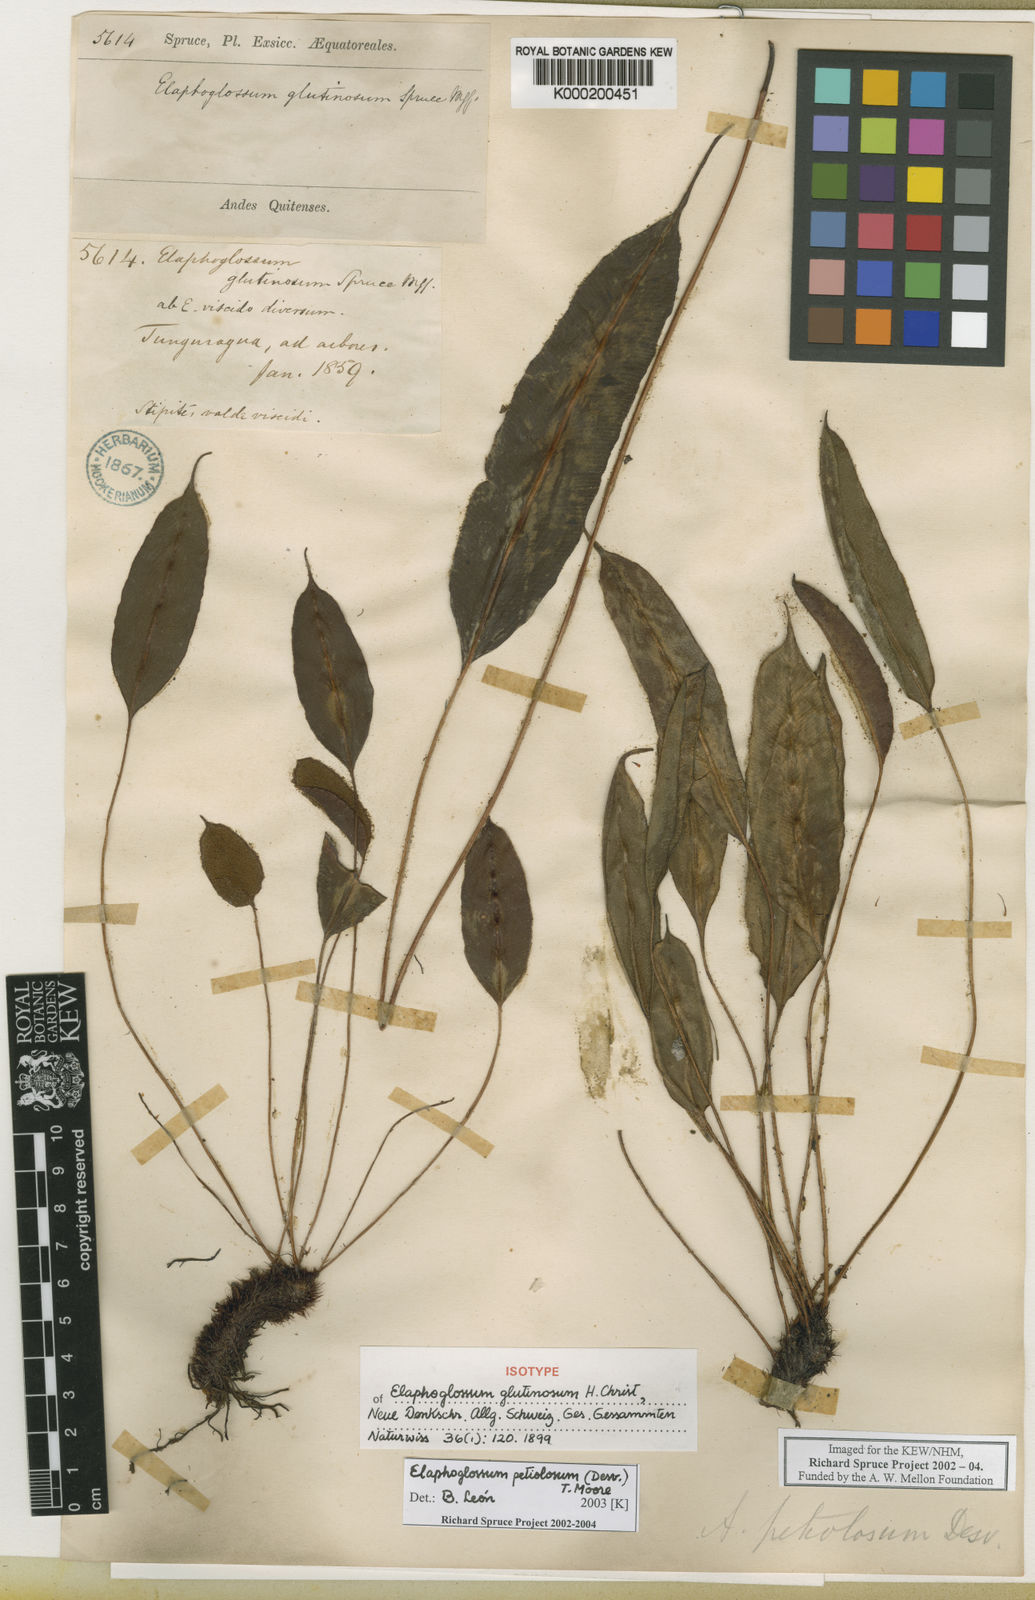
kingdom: Plantae
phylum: Tracheophyta
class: Polypodiopsida
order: Polypodiales
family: Dryopteridaceae
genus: Elaphoglossum
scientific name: Elaphoglossum petiolosum
